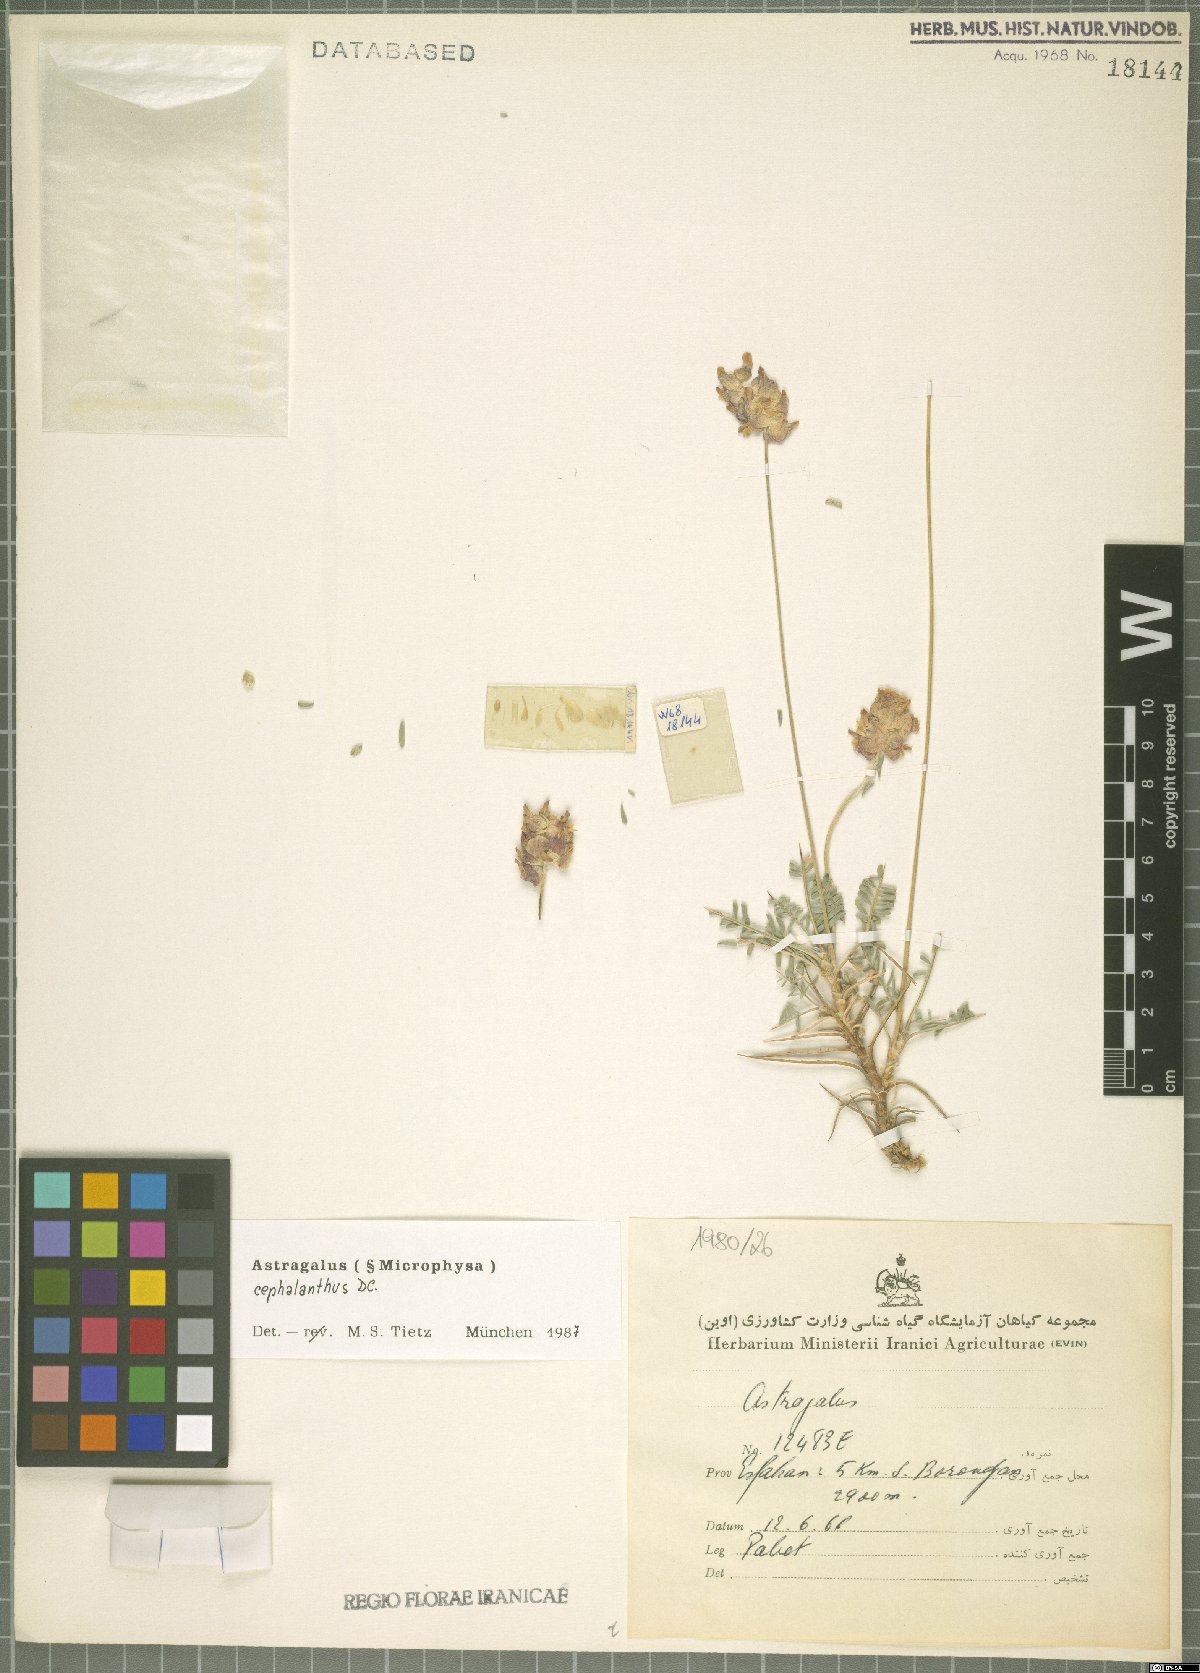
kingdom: Plantae
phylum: Tracheophyta
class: Magnoliopsida
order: Fabales
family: Fabaceae
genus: Astragalus
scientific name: Astragalus cephalanthus
